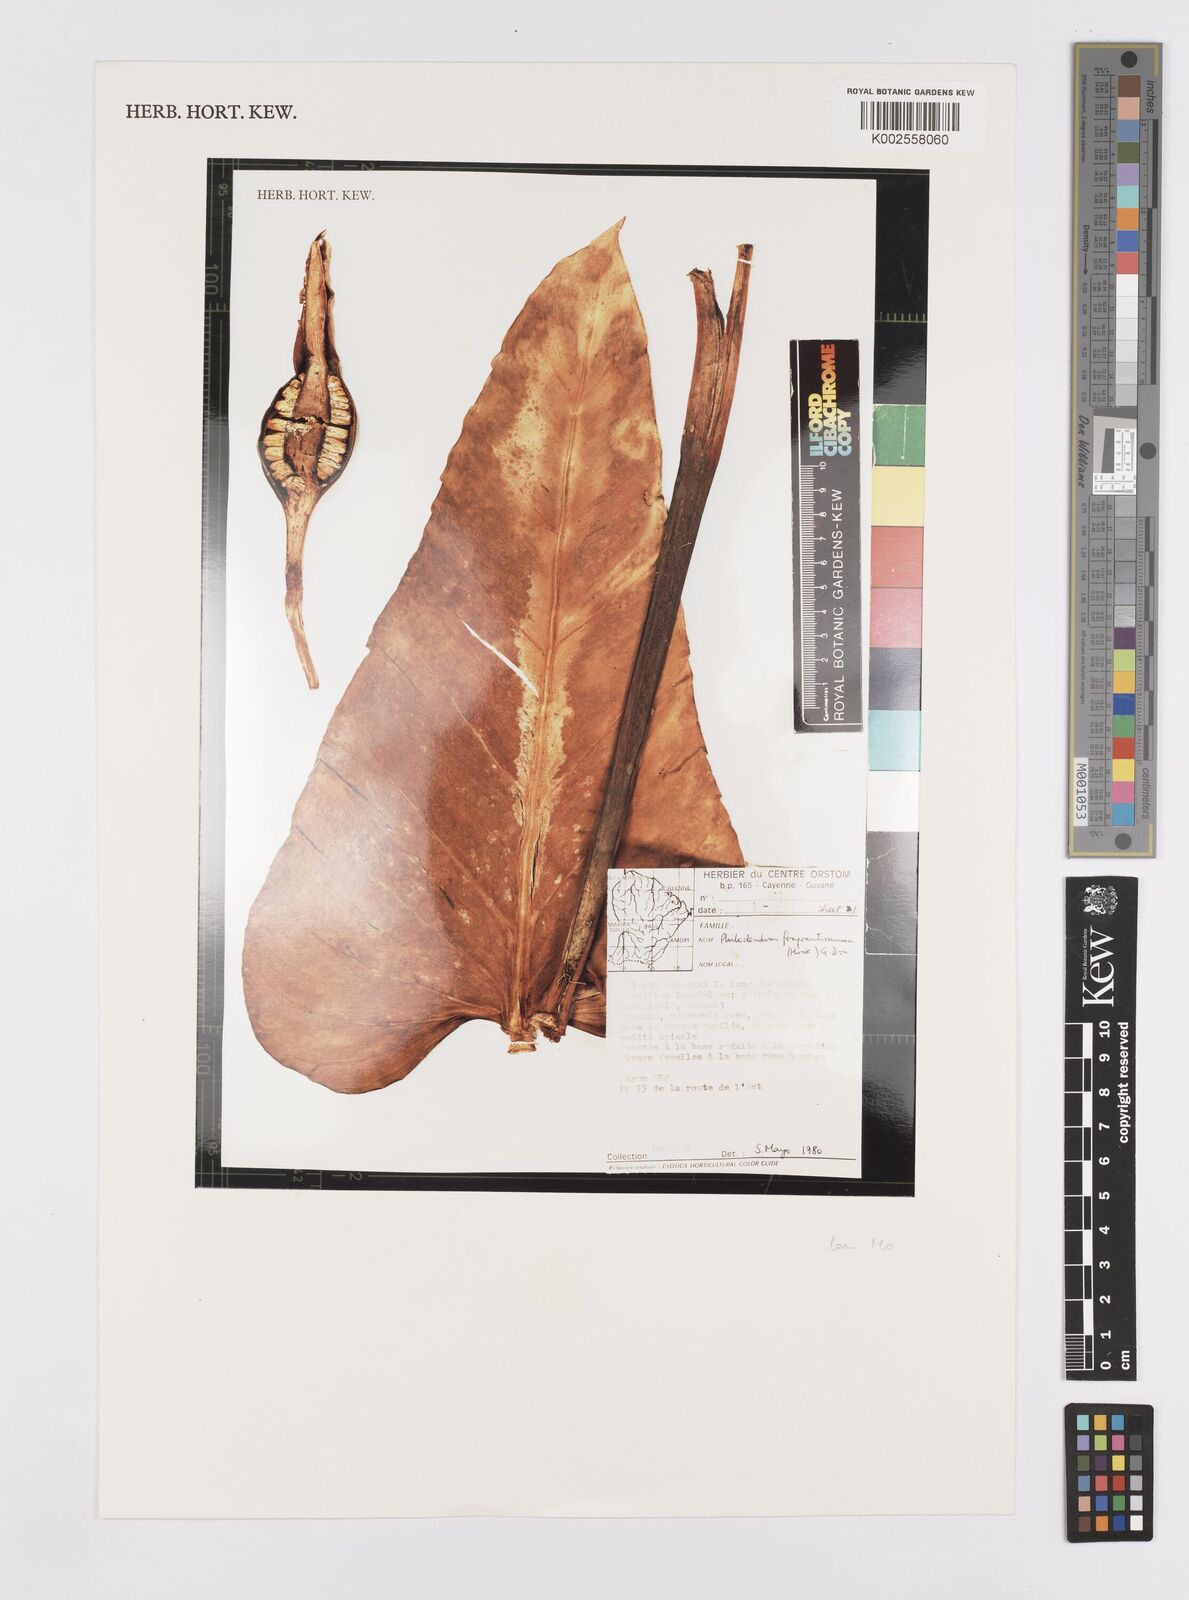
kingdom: Plantae
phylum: Tracheophyta
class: Liliopsida
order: Alismatales
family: Araceae
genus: Philodendron
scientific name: Philodendron fragrantissimum
